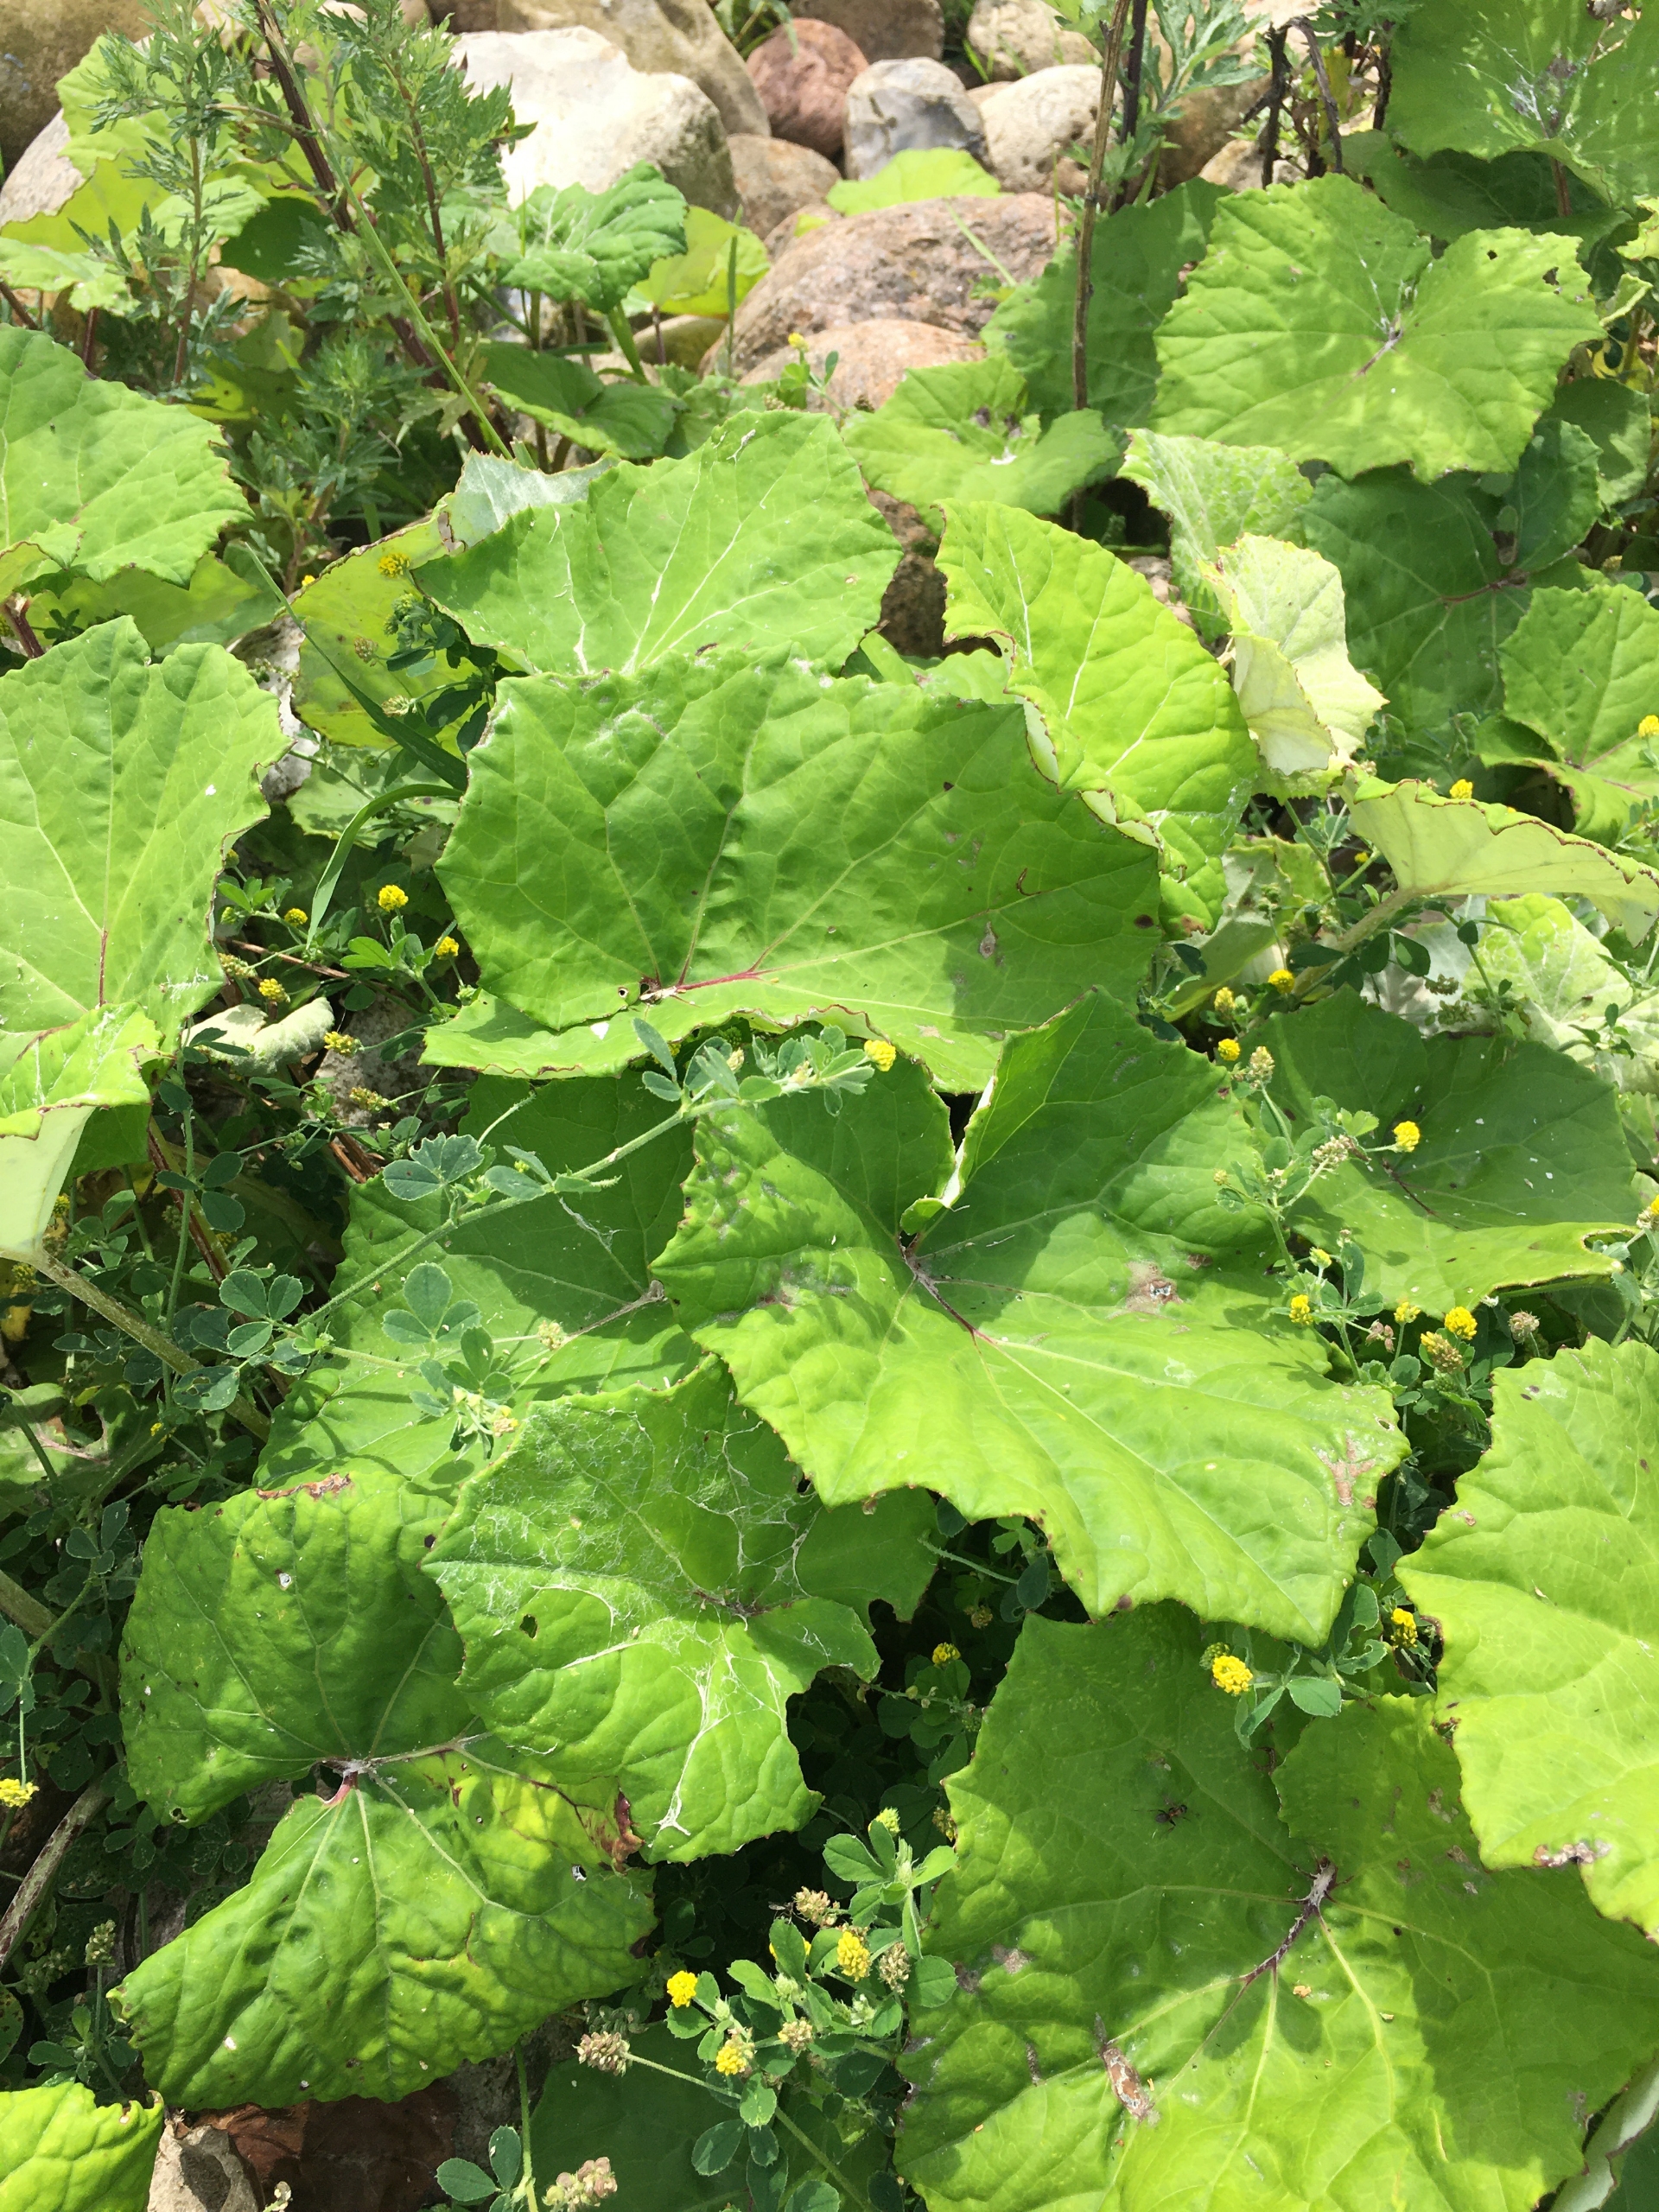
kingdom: Plantae
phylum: Tracheophyta
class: Magnoliopsida
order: Asterales
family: Asteraceae
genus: Tussilago
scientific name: Tussilago farfara
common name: Følfod
